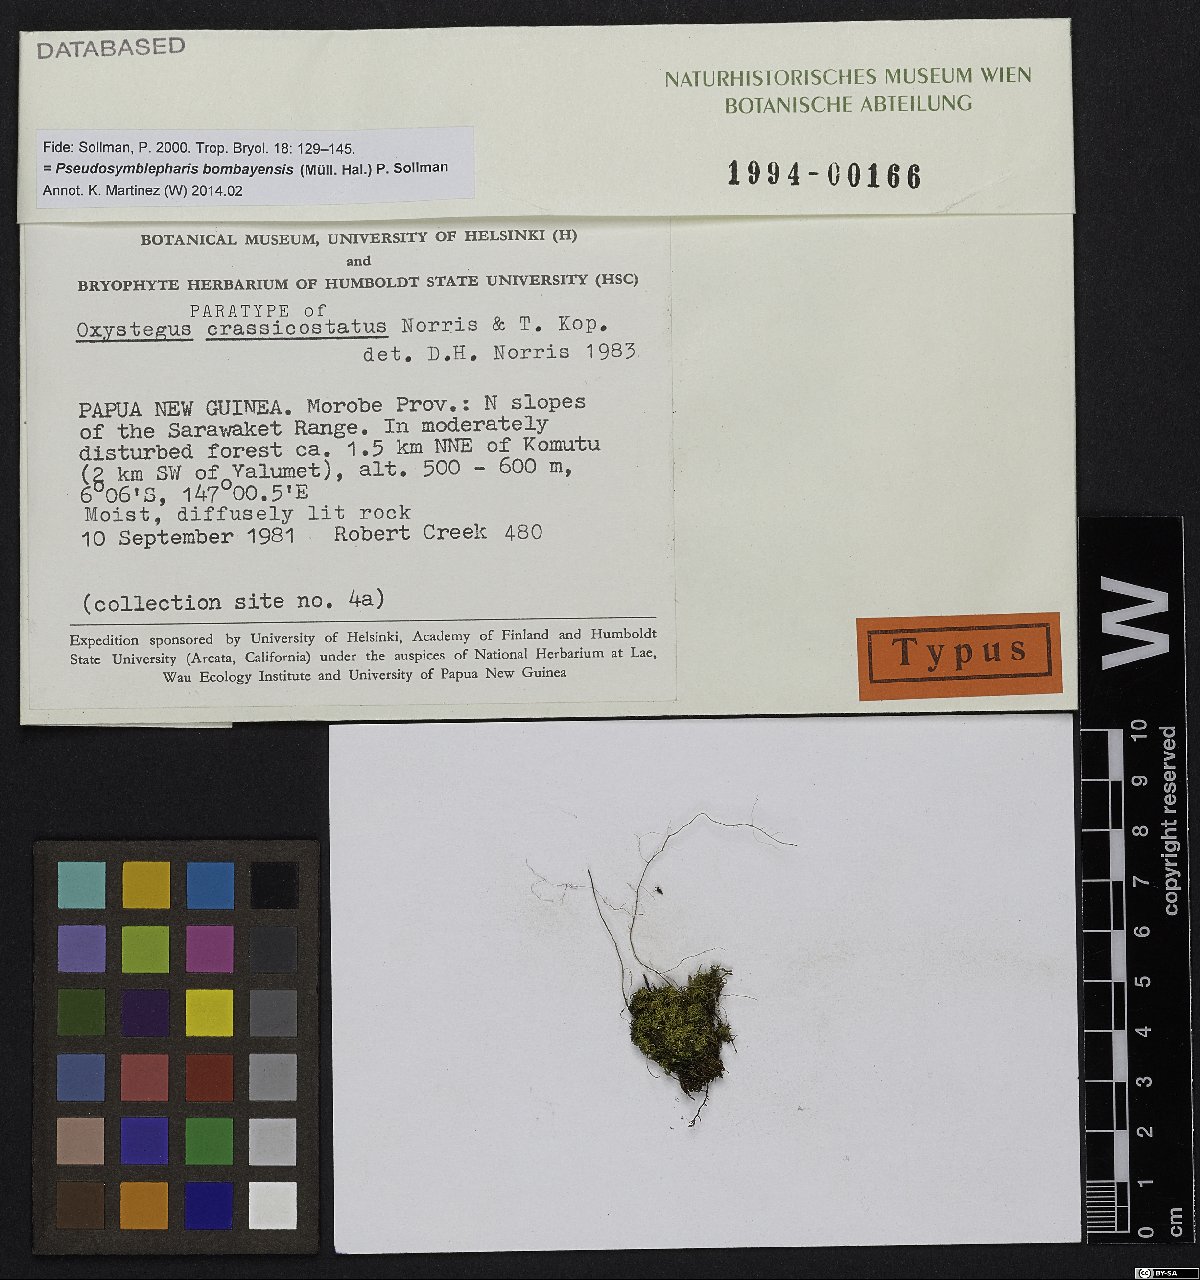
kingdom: Plantae
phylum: Bryophyta
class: Bryopsida
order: Pottiales
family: Pottiaceae
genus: Chionoloma
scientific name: Chionoloma schlimii
